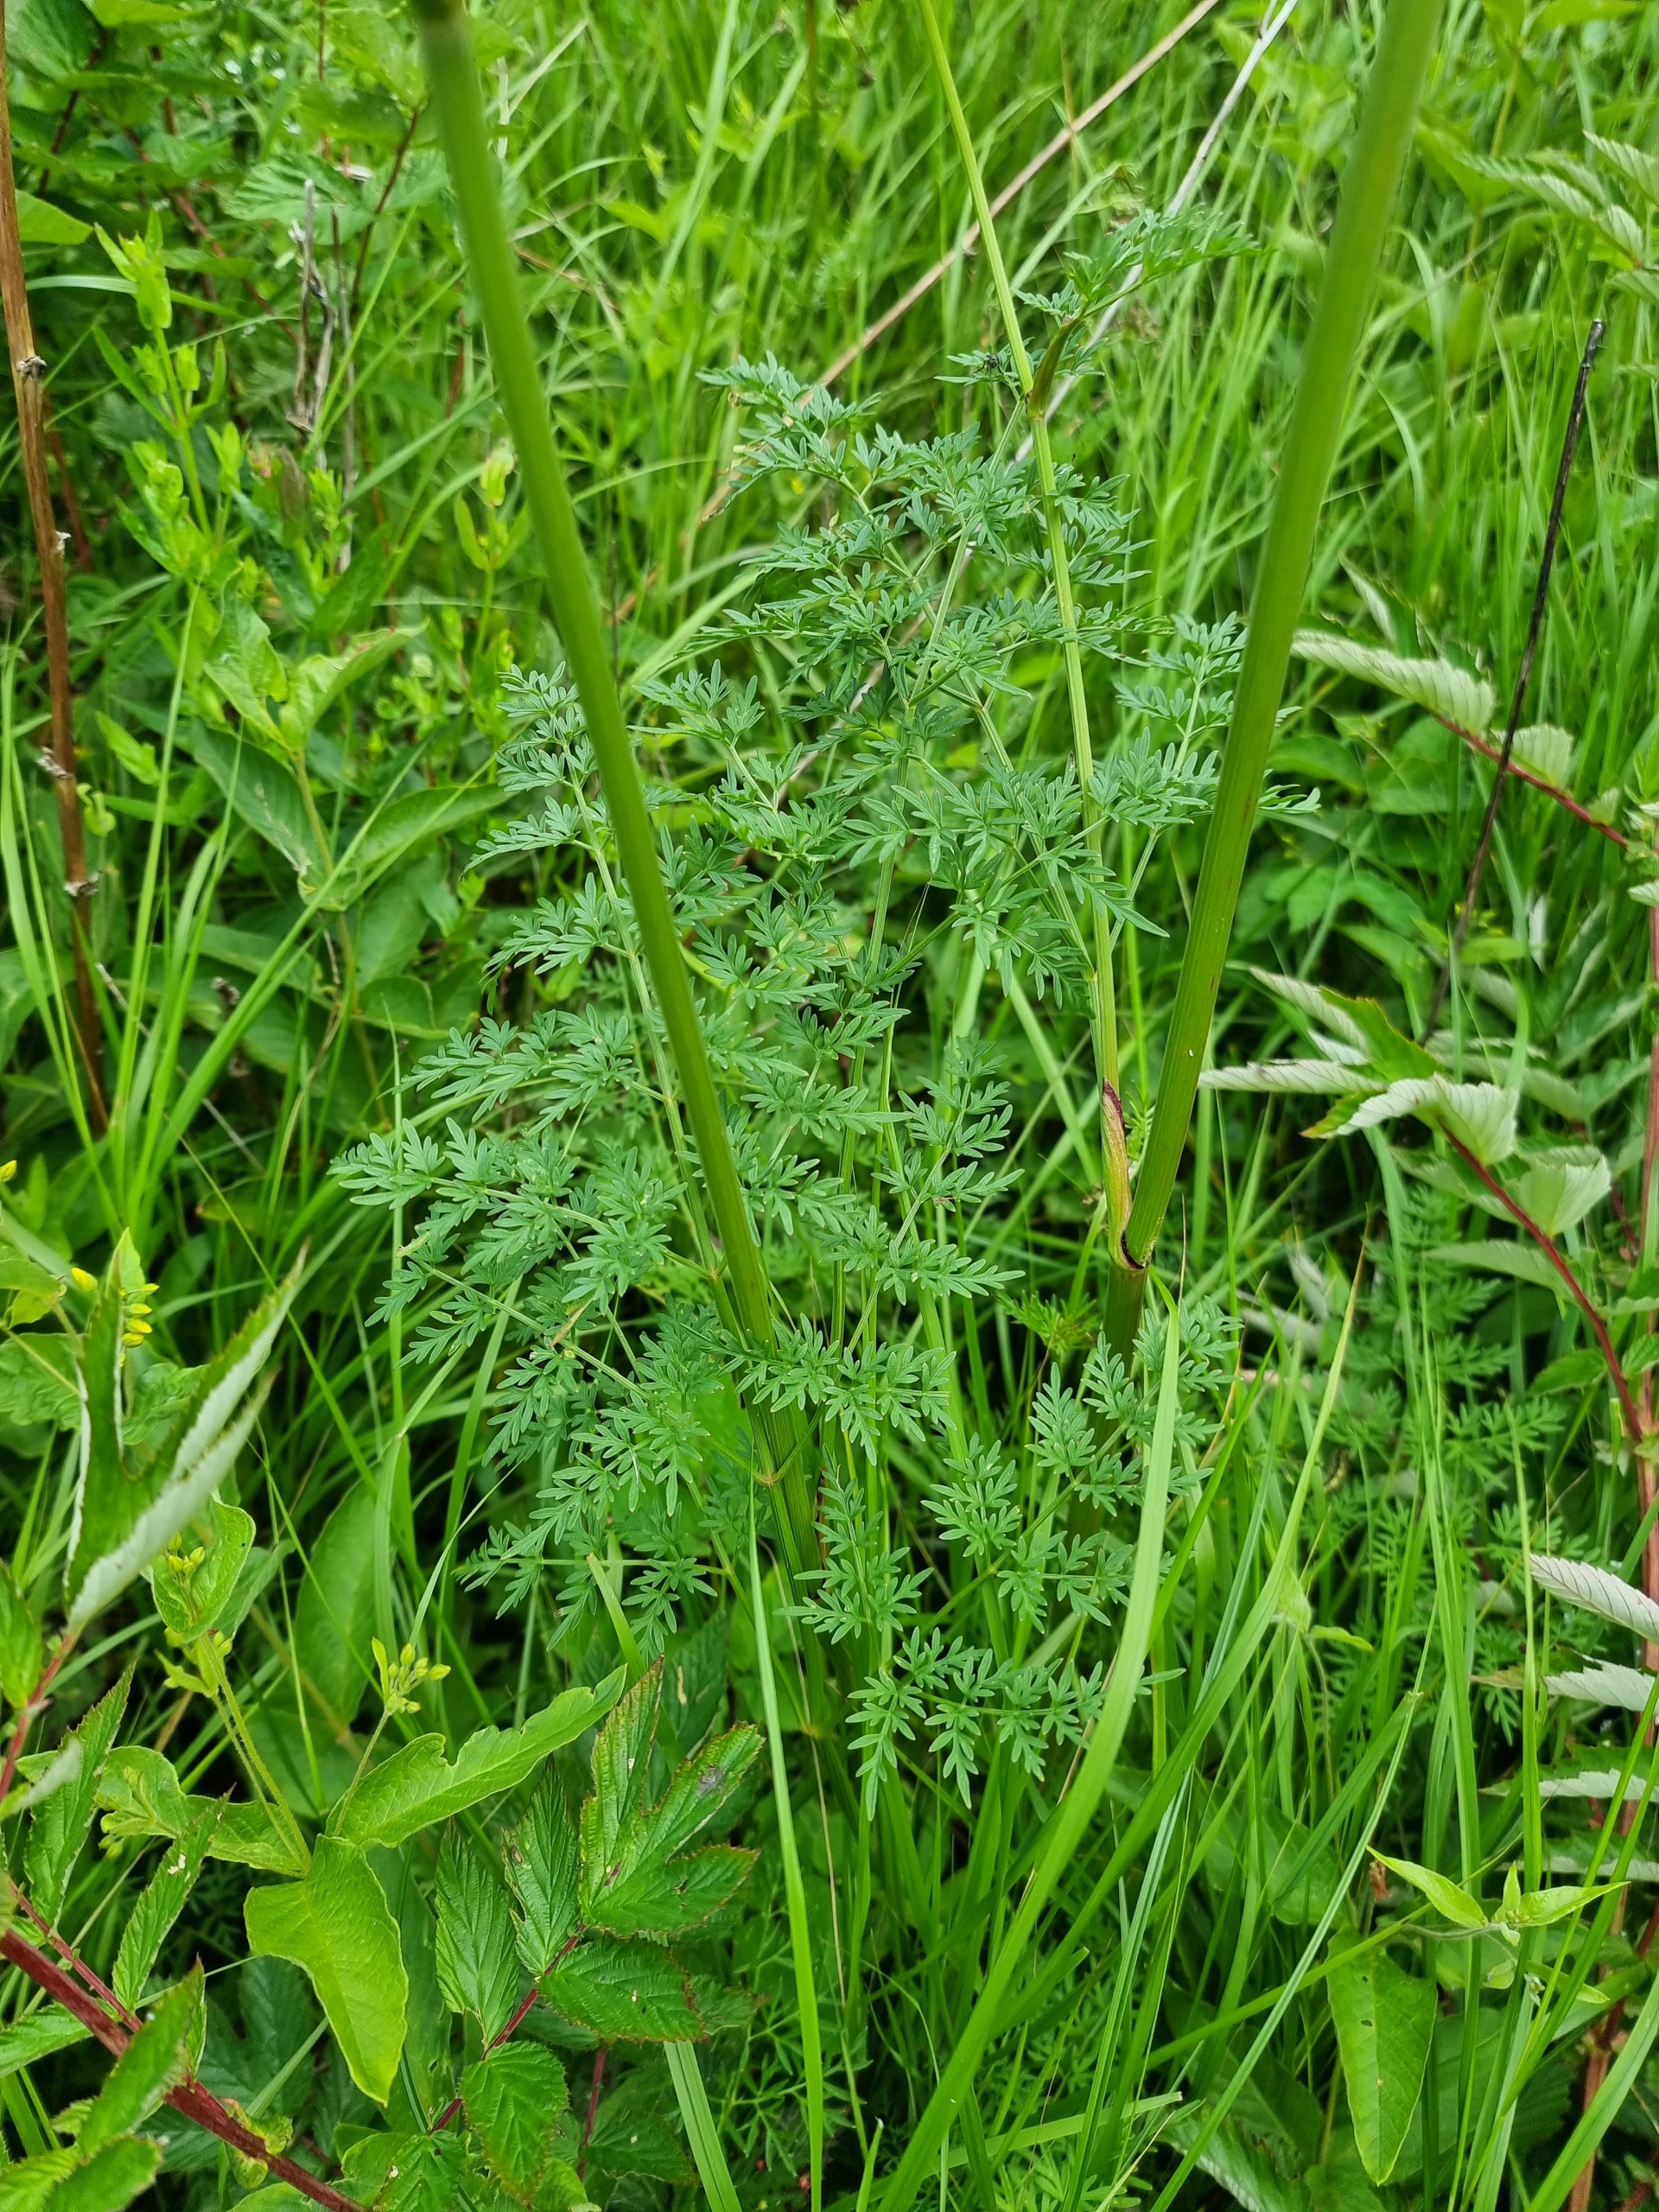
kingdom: Plantae
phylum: Tracheophyta
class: Magnoliopsida
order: Apiales
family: Apiaceae
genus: Thysselinum
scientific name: Thysselinum palustre
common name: Kær-svovlrod
